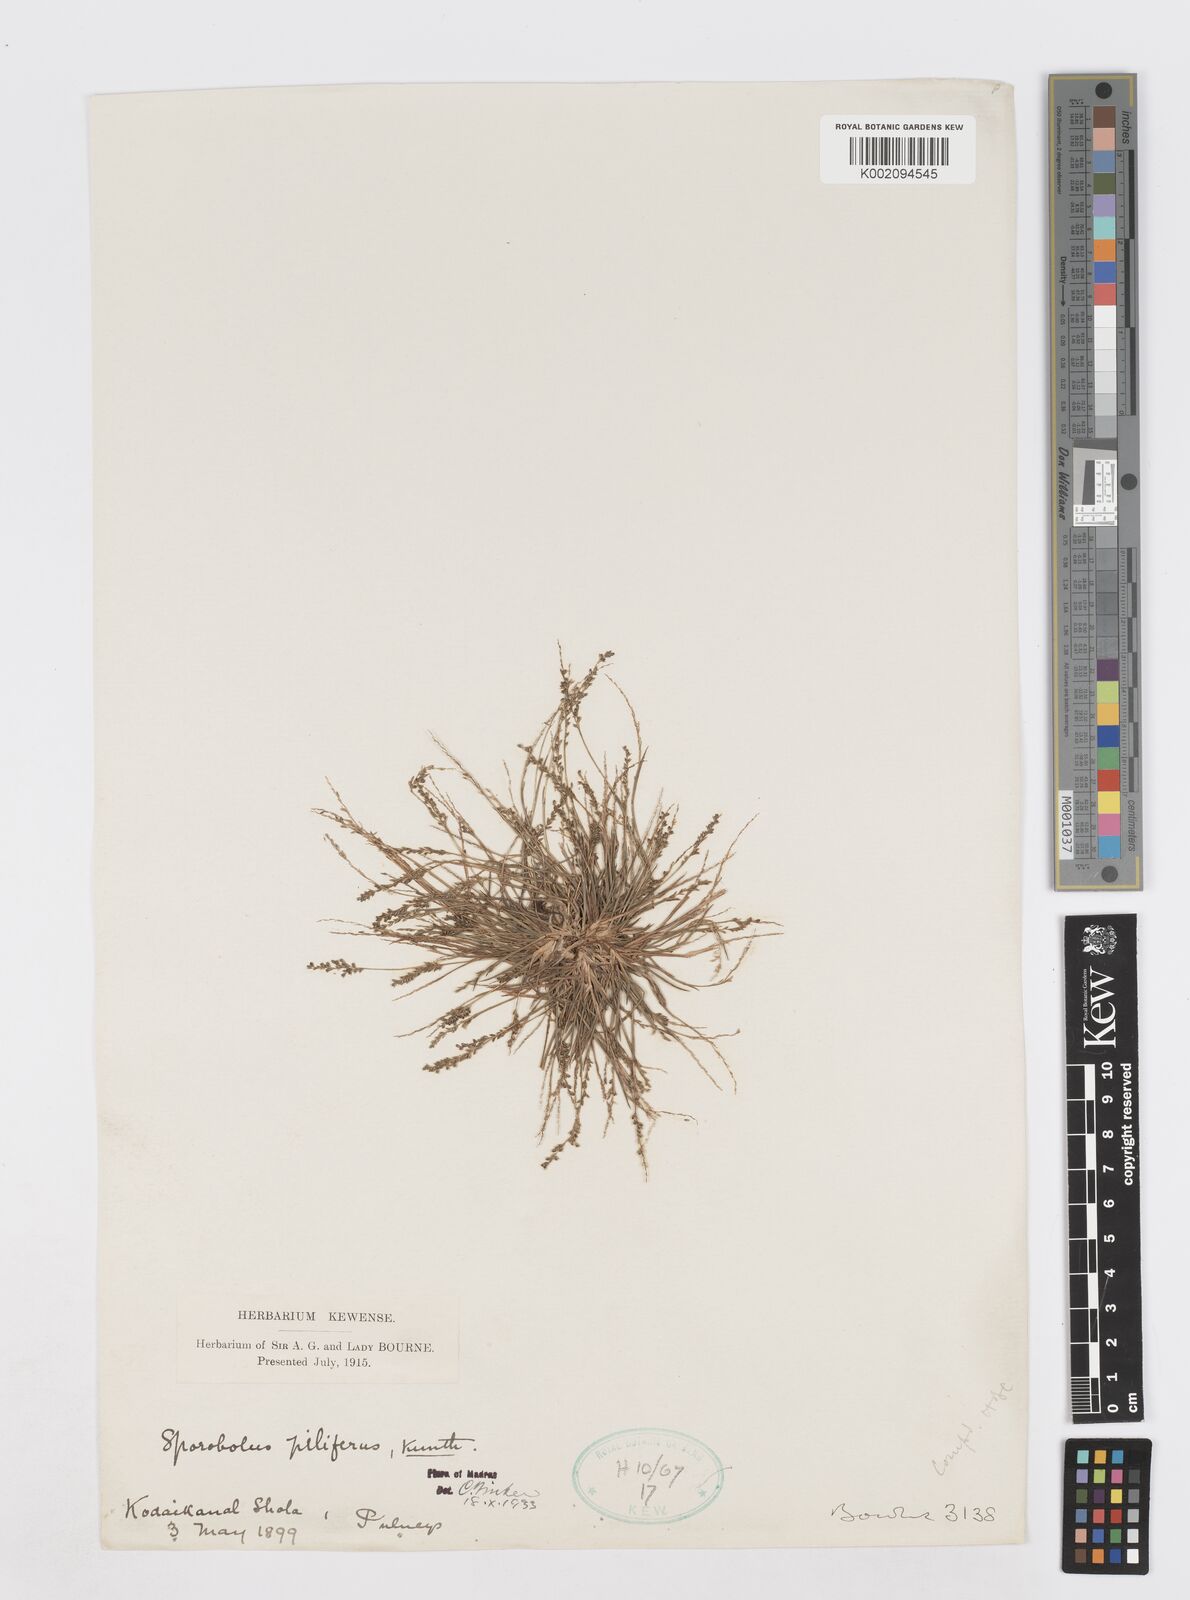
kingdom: Plantae
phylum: Tracheophyta
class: Liliopsida
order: Poales
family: Poaceae
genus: Sporobolus
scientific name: Sporobolus pilifer
